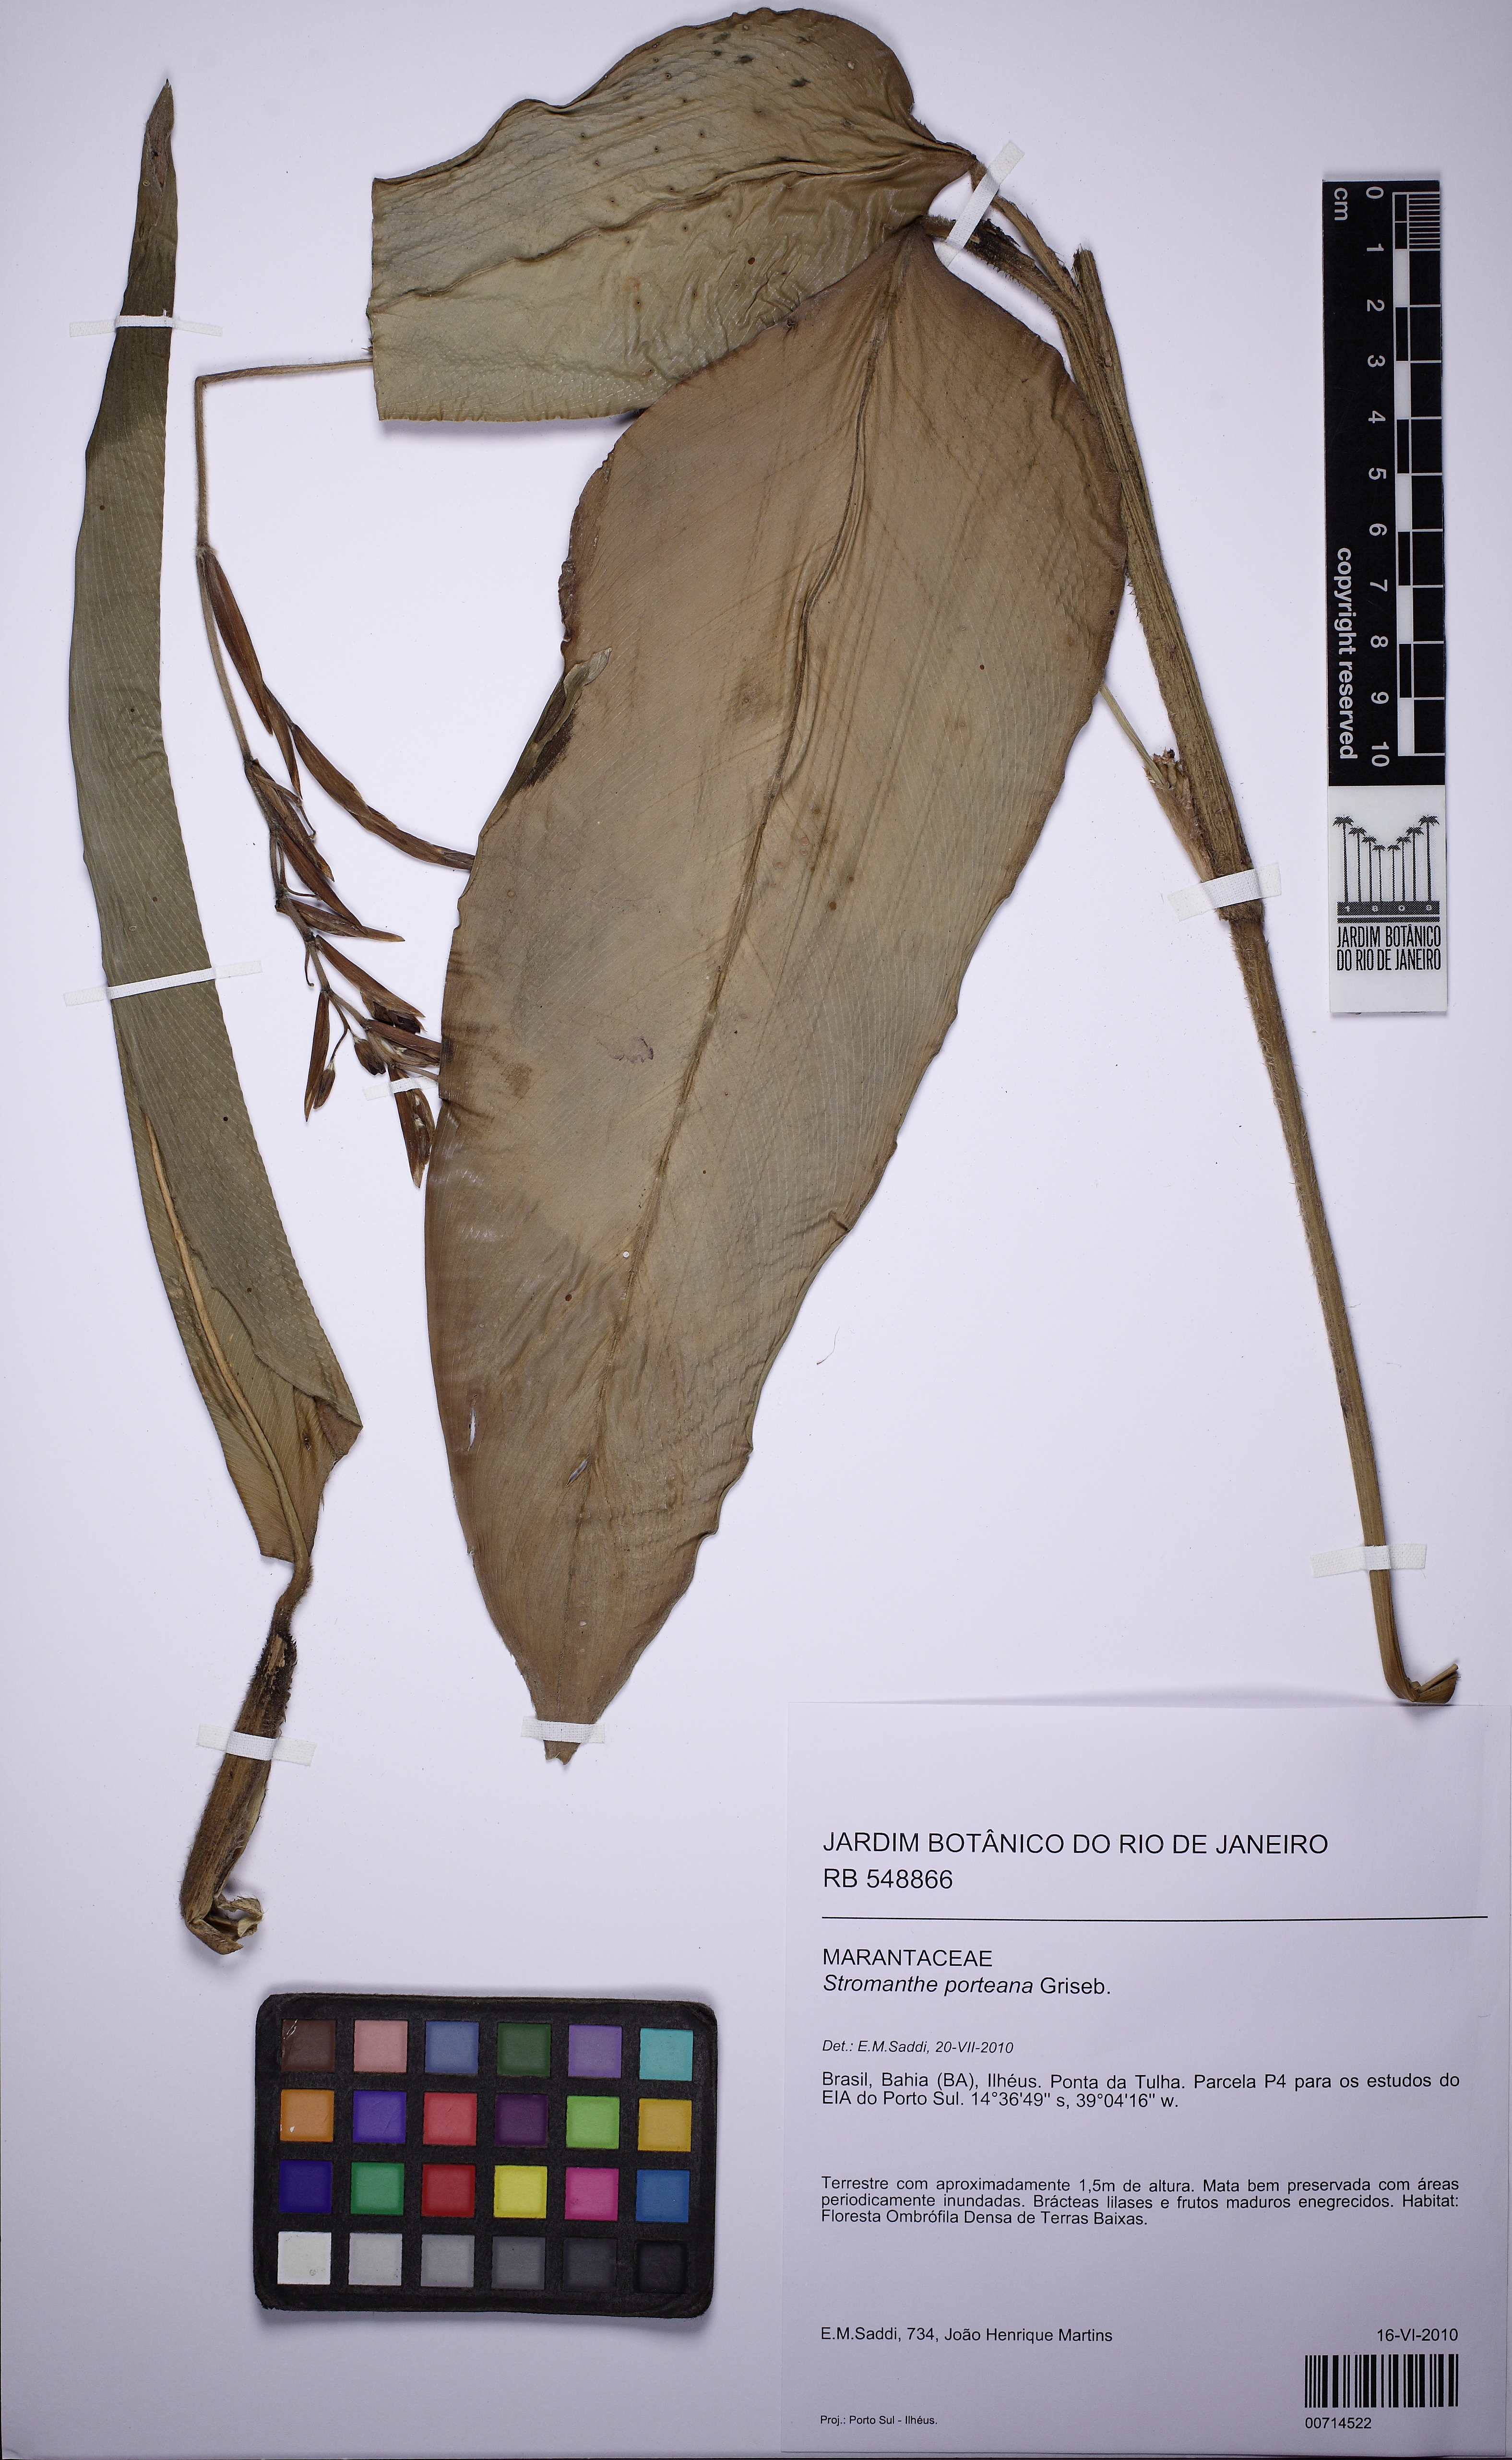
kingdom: Plantae
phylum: Tracheophyta
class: Liliopsida
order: Zingiberales
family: Marantaceae
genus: Stromanthe
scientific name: Stromanthe porteana
